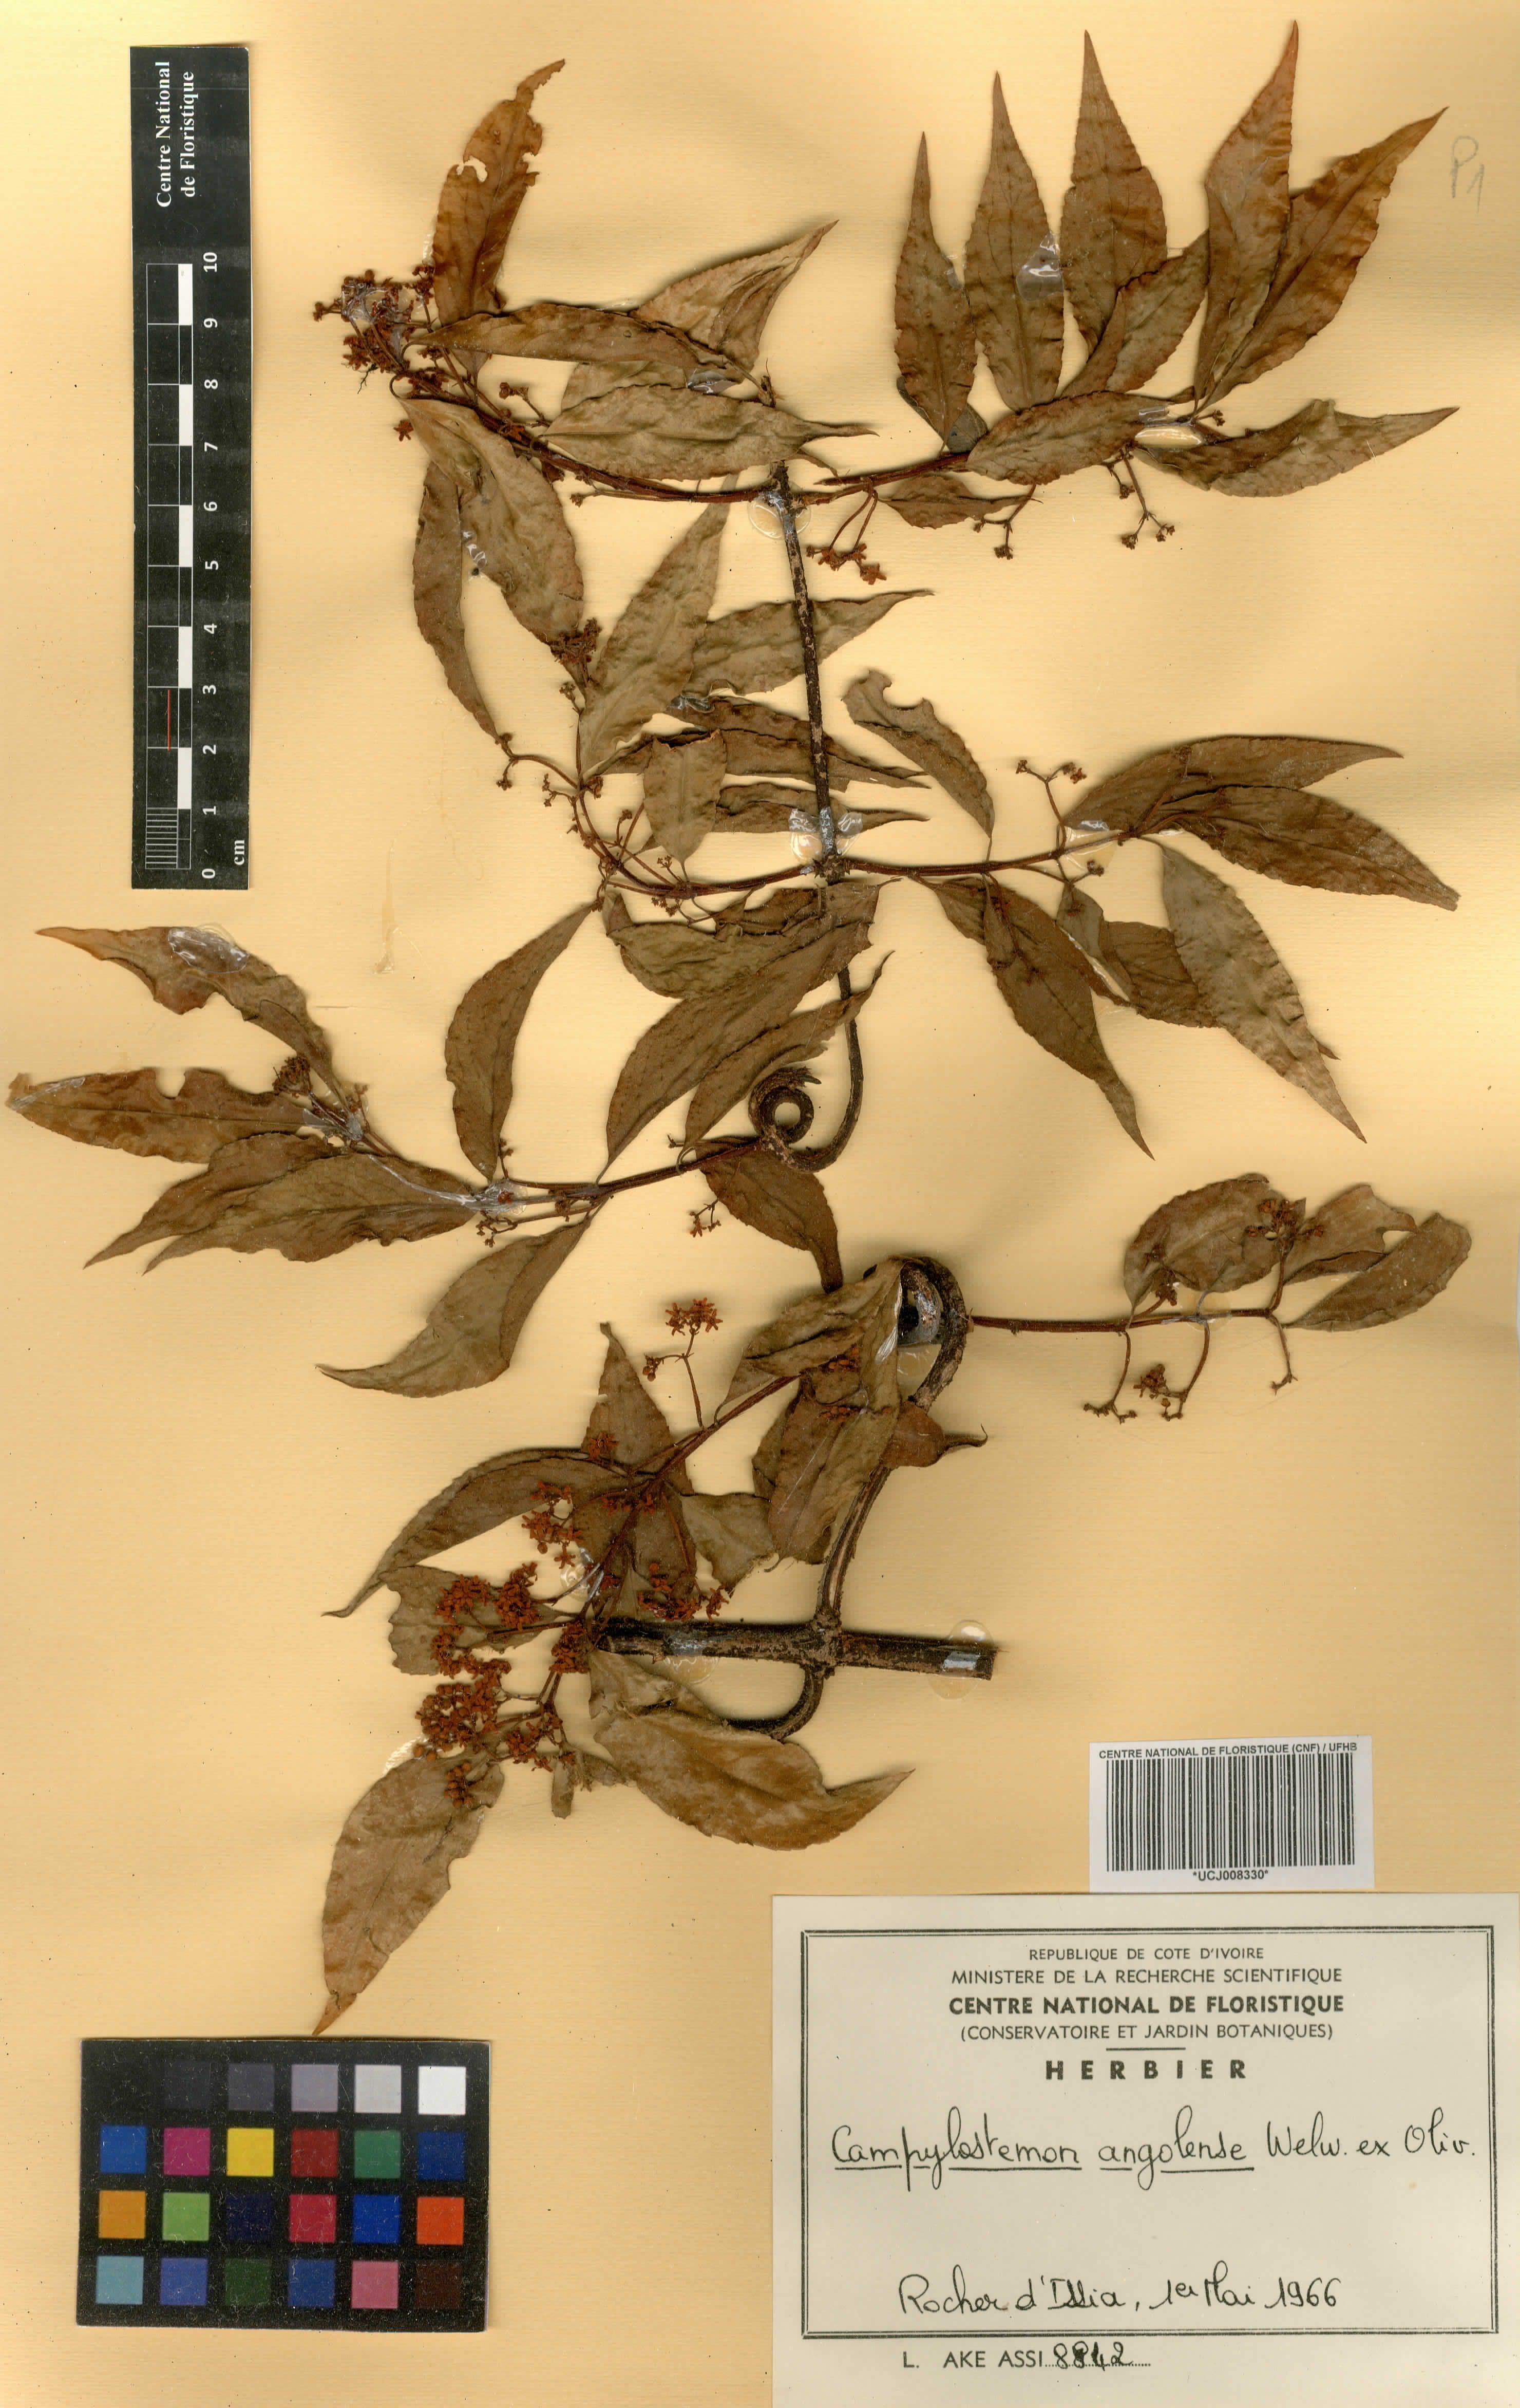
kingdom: Plantae
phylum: Tracheophyta
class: Magnoliopsida
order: Celastrales
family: Celastraceae
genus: Campylostemon
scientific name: Campylostemon angolense
